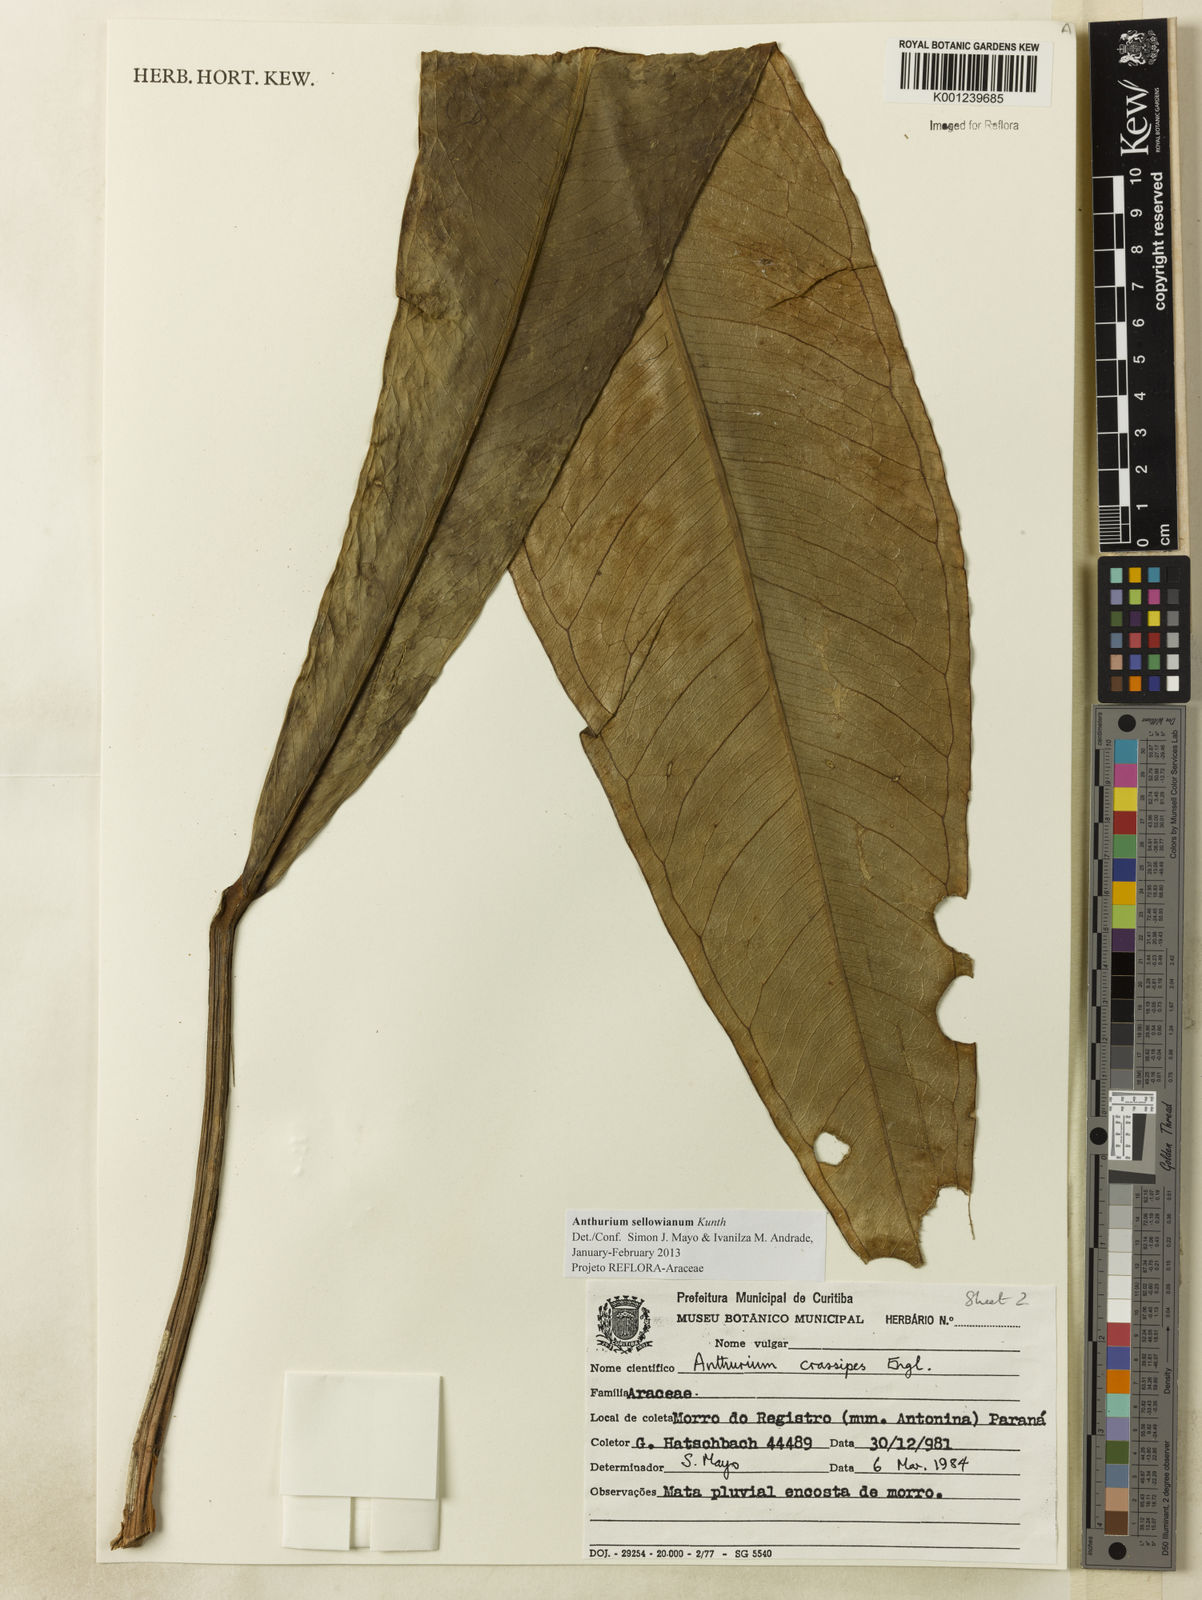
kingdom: Plantae
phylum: Tracheophyta
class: Liliopsida
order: Alismatales
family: Araceae
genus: Anthurium
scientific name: Anthurium sellowianum
